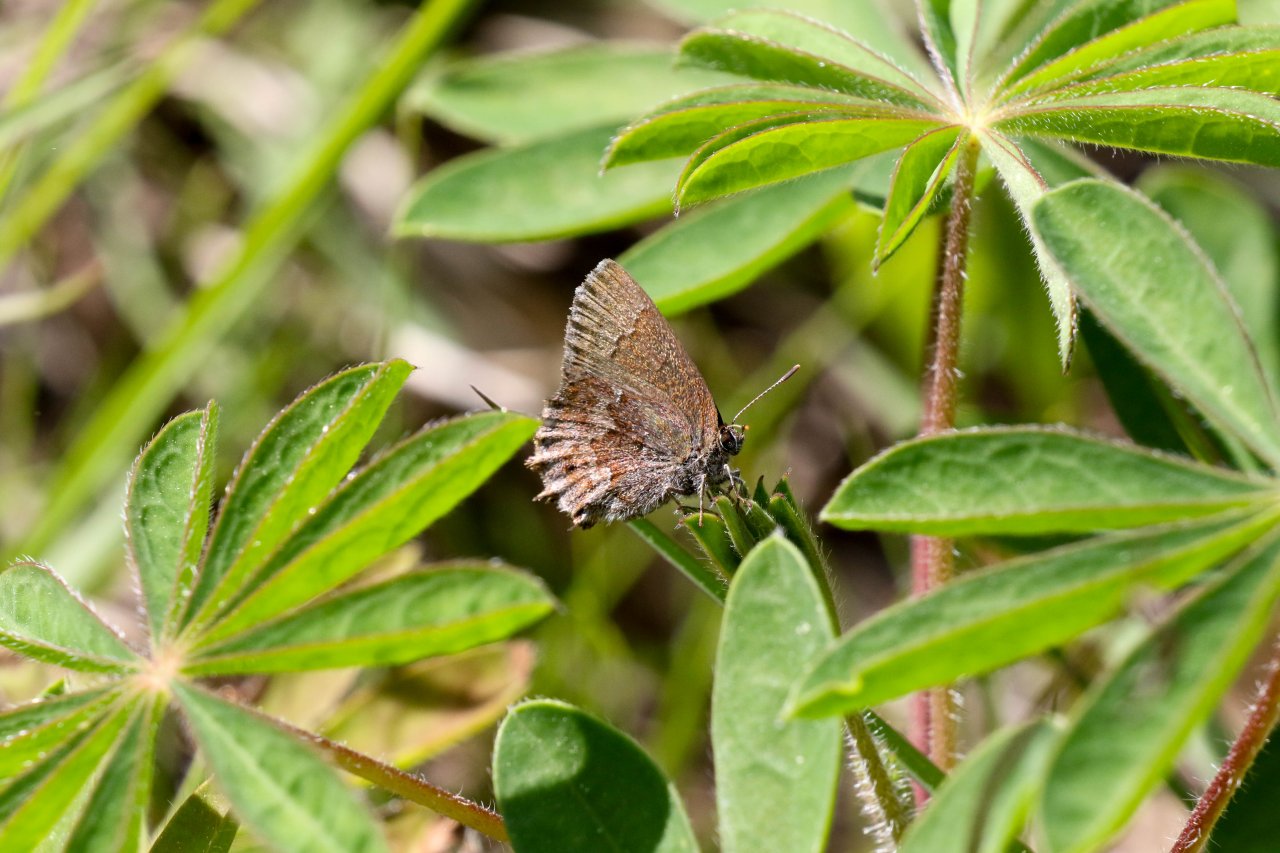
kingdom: Animalia
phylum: Arthropoda
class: Insecta
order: Lepidoptera
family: Lycaenidae
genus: Thecla
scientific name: Thecla irus
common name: Frosted Elfin
